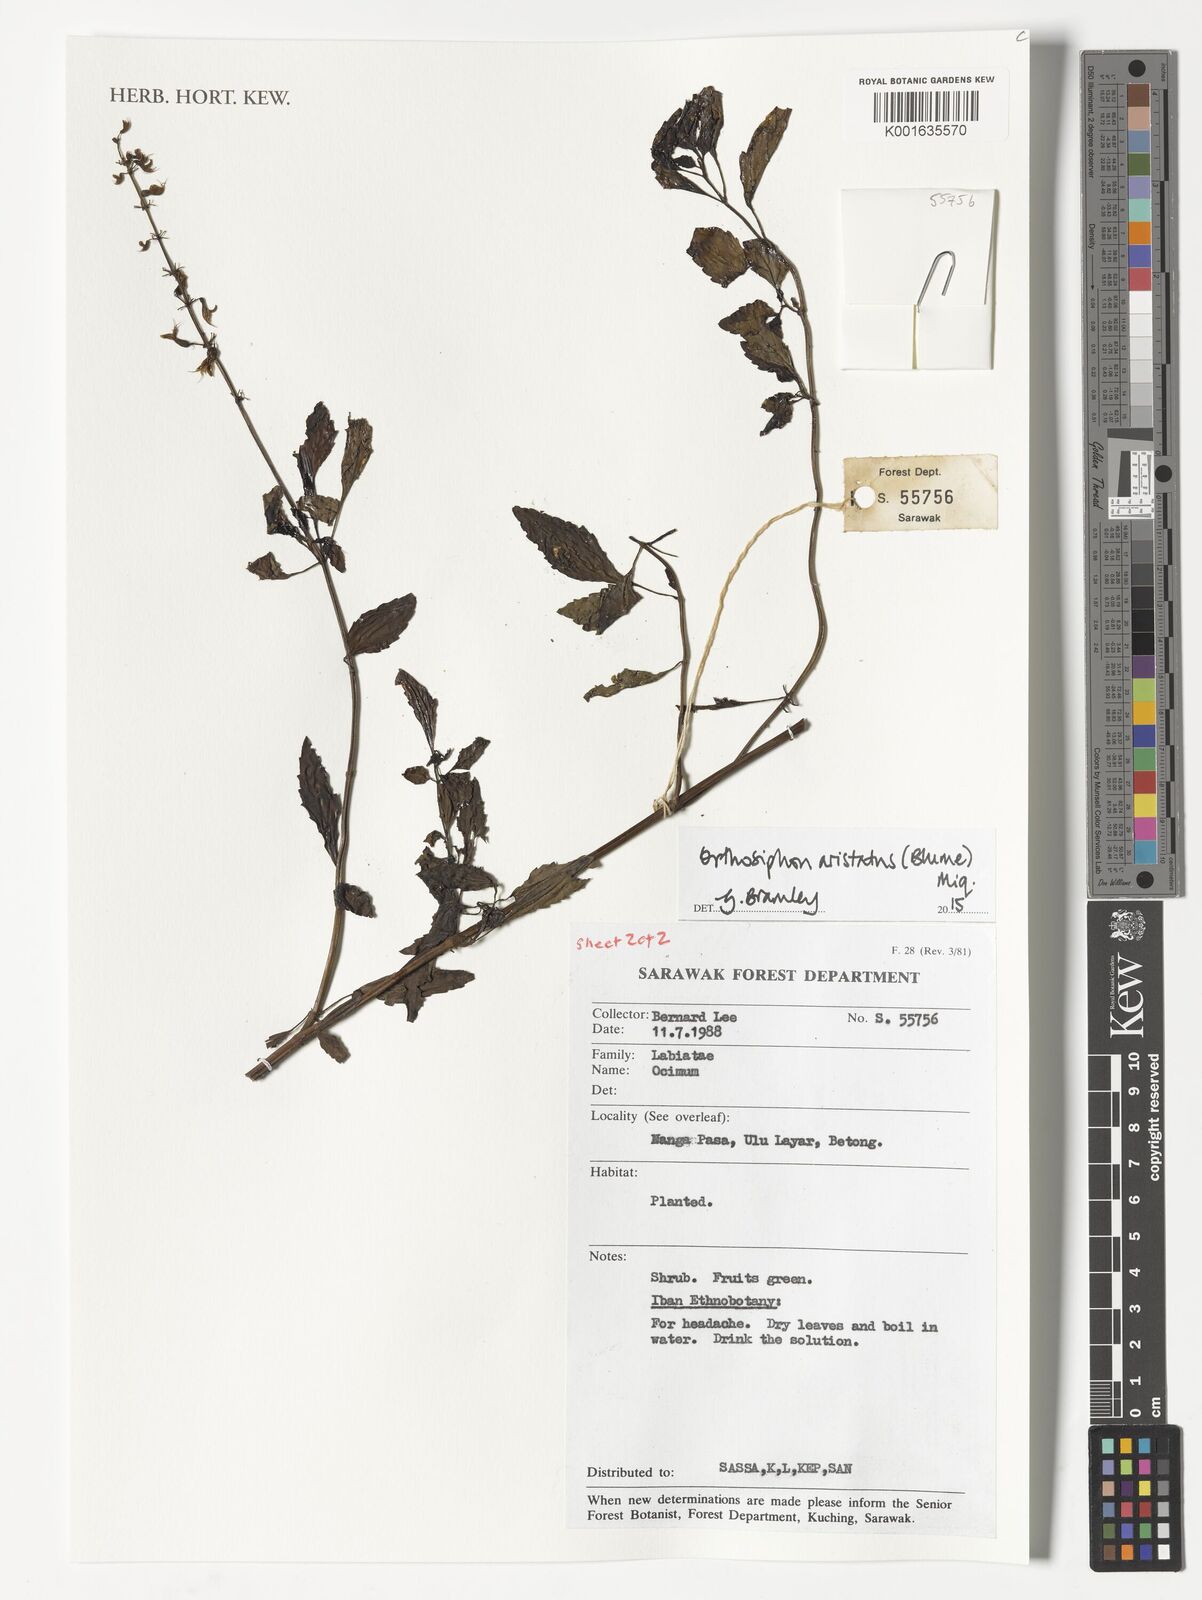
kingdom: Plantae
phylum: Tracheophyta
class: Magnoliopsida
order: Lamiales
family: Lamiaceae
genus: Orthosiphon
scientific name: Orthosiphon aristatus
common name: Whiskerplant
